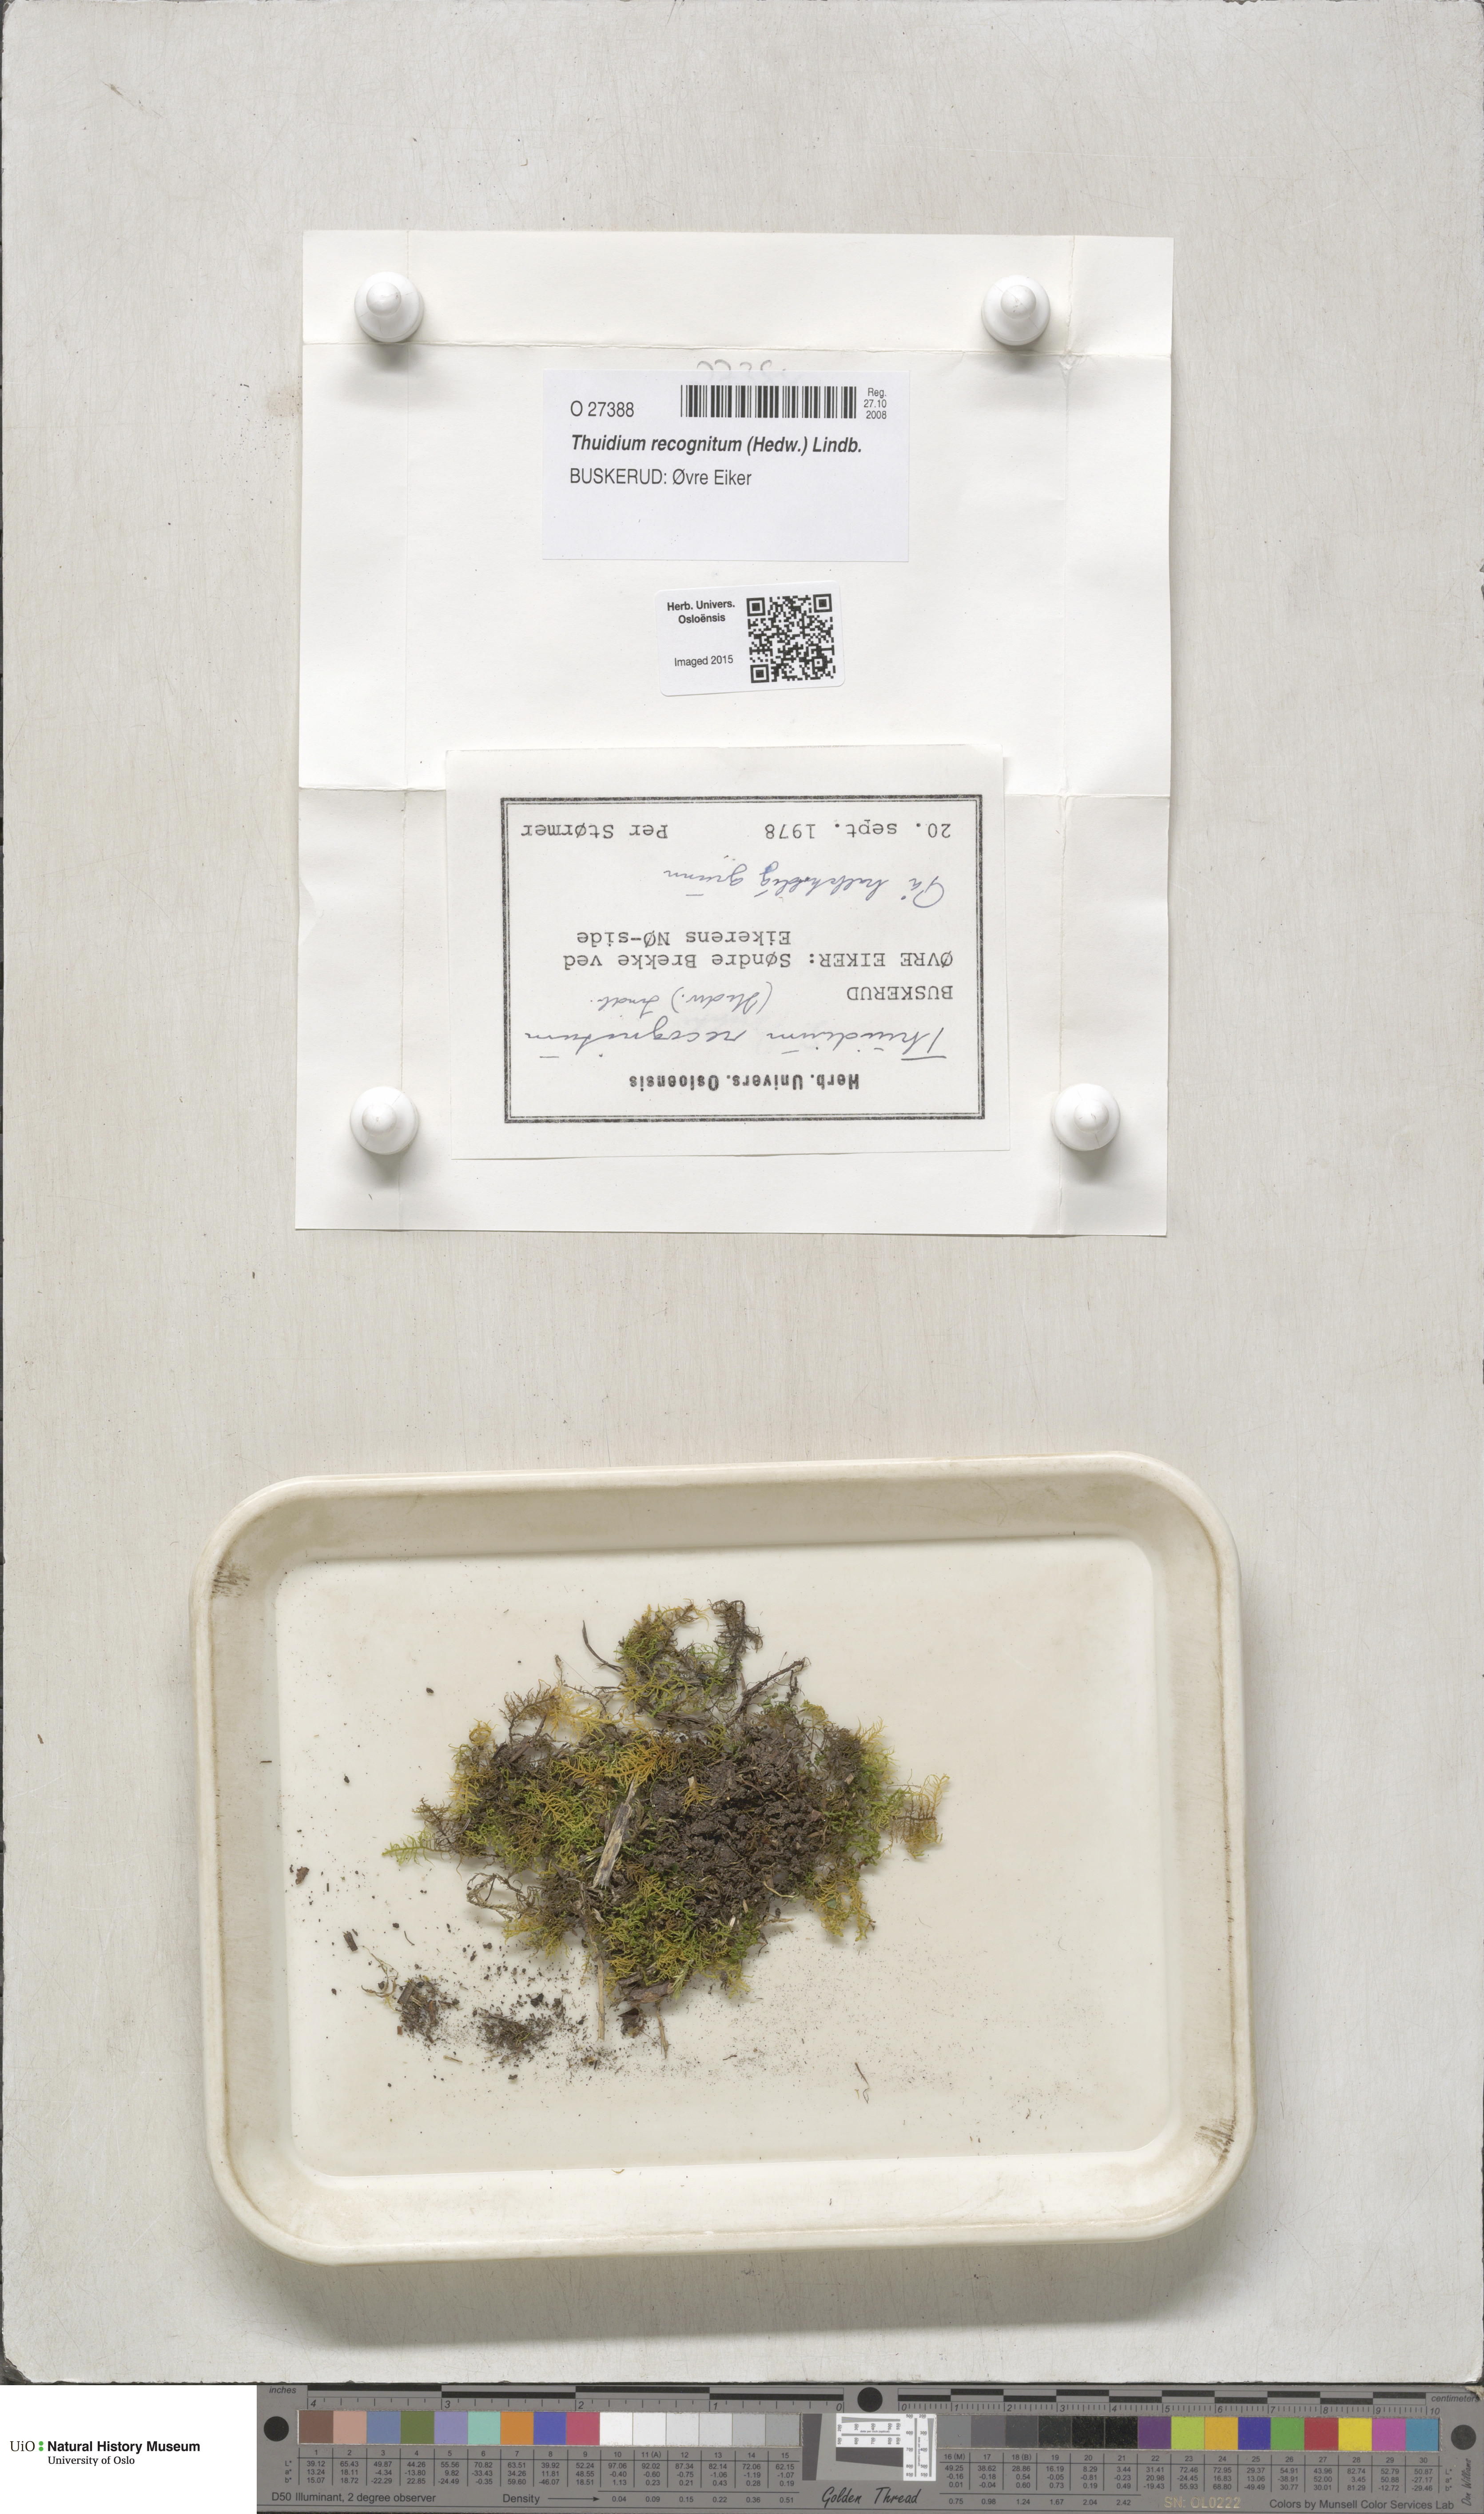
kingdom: Plantae
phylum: Bryophyta
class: Bryopsida
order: Hypnales
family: Thuidiaceae
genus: Thuidium
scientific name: Thuidium recognitum
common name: Hook-leaved fern moss
